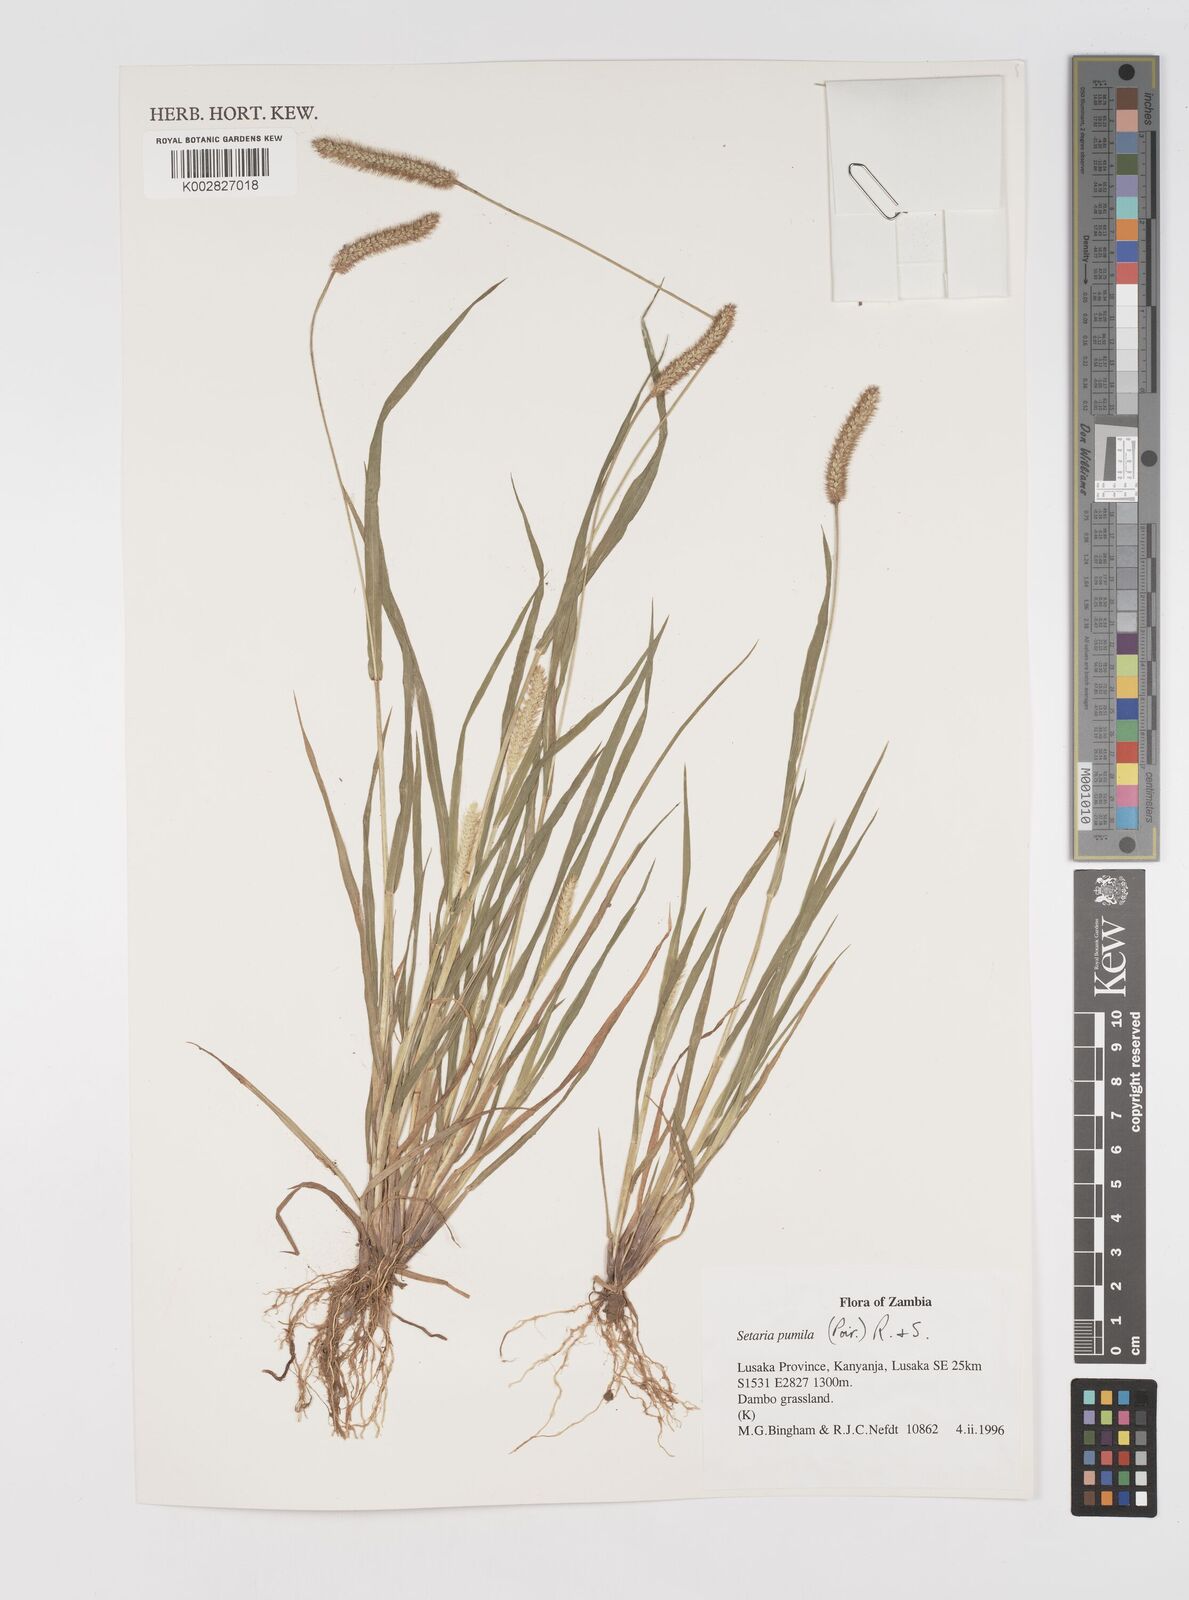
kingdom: Plantae
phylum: Tracheophyta
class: Liliopsida
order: Poales
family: Poaceae
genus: Setaria
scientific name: Setaria pumila
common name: Yellow bristle-grass
